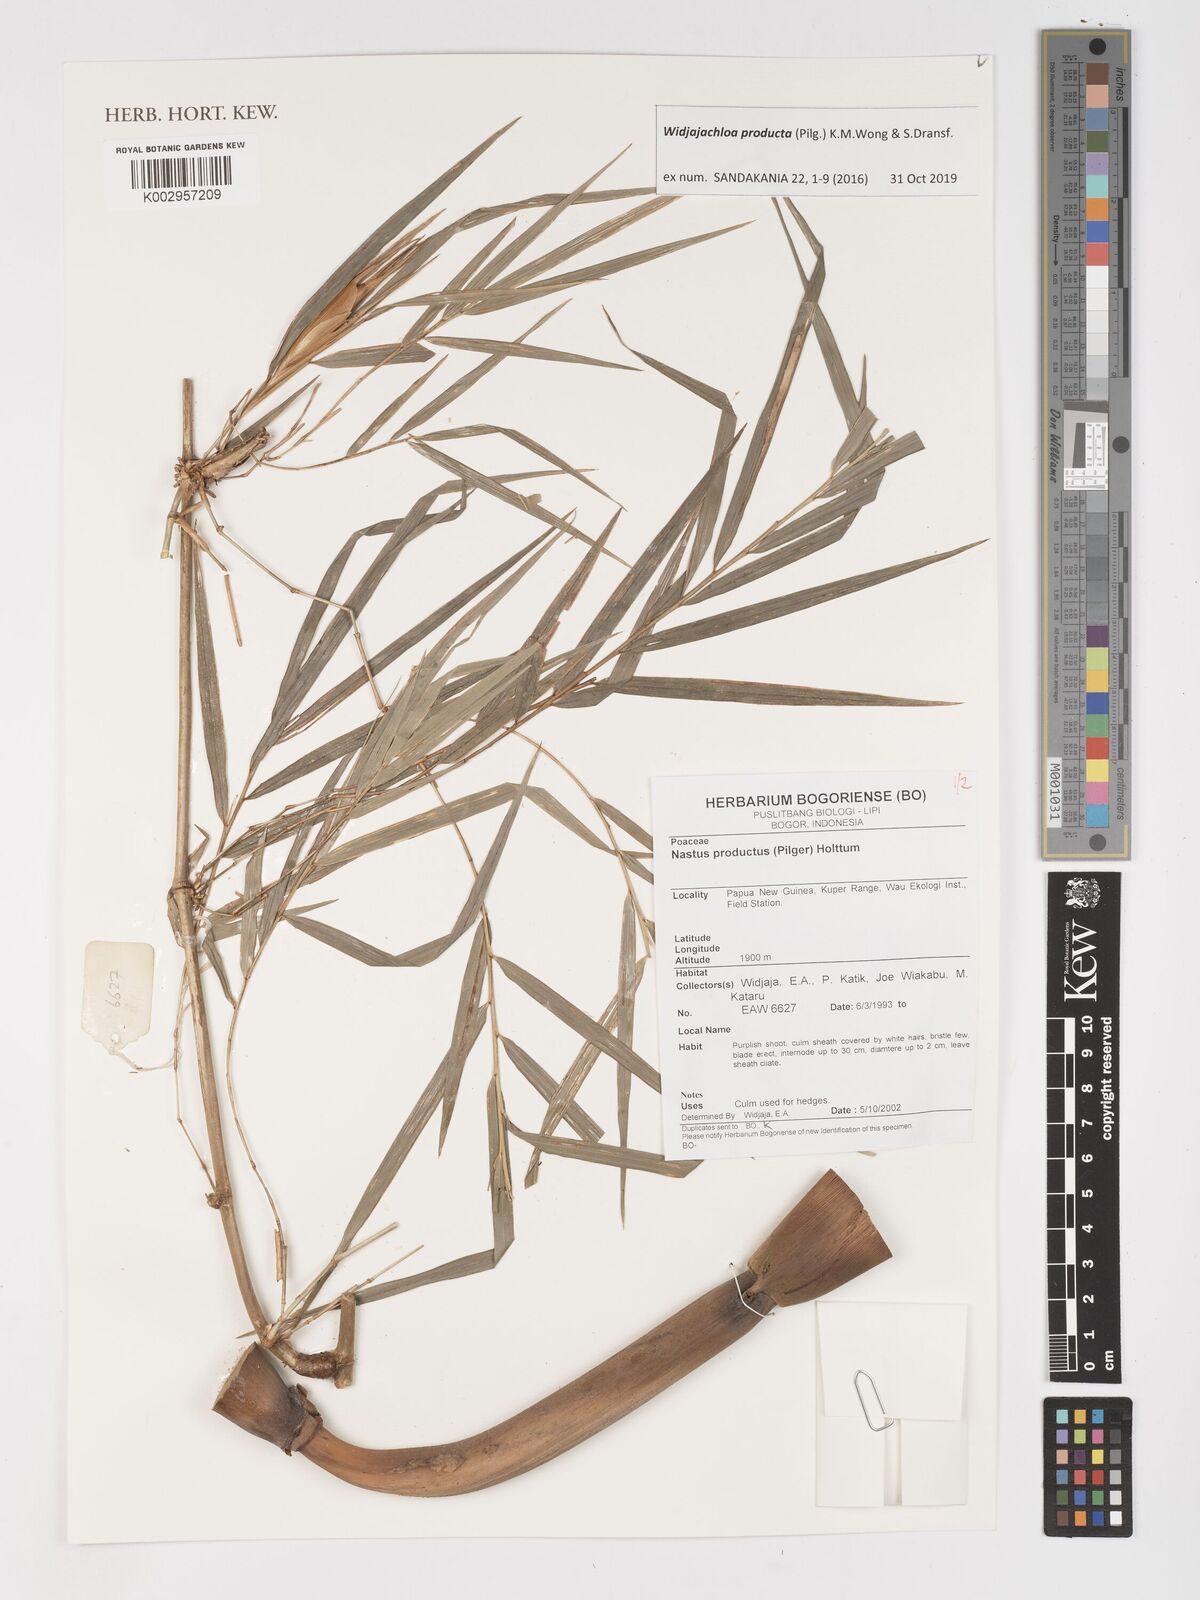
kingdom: Plantae
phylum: Tracheophyta
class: Liliopsida
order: Poales
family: Poaceae
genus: Widjajachloa
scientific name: Widjajachloa producta
